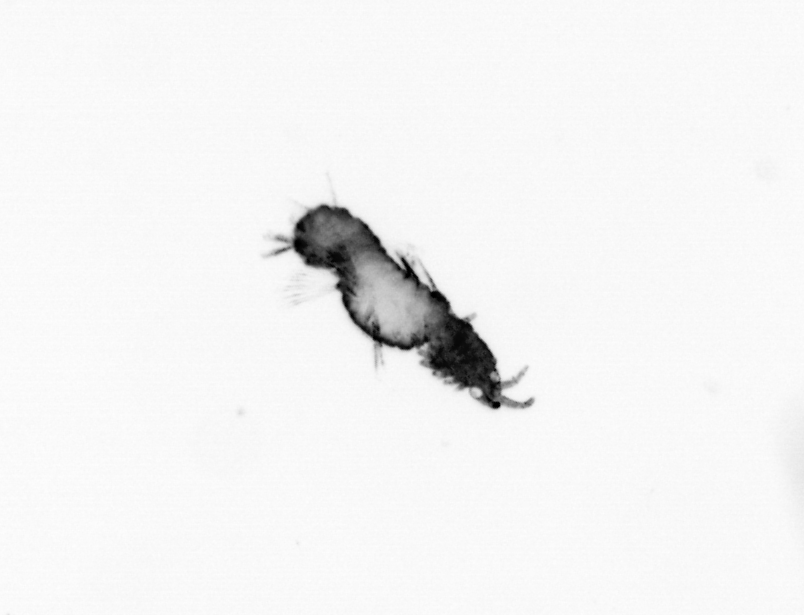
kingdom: Animalia
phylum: Annelida
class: Polychaeta
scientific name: Polychaeta
